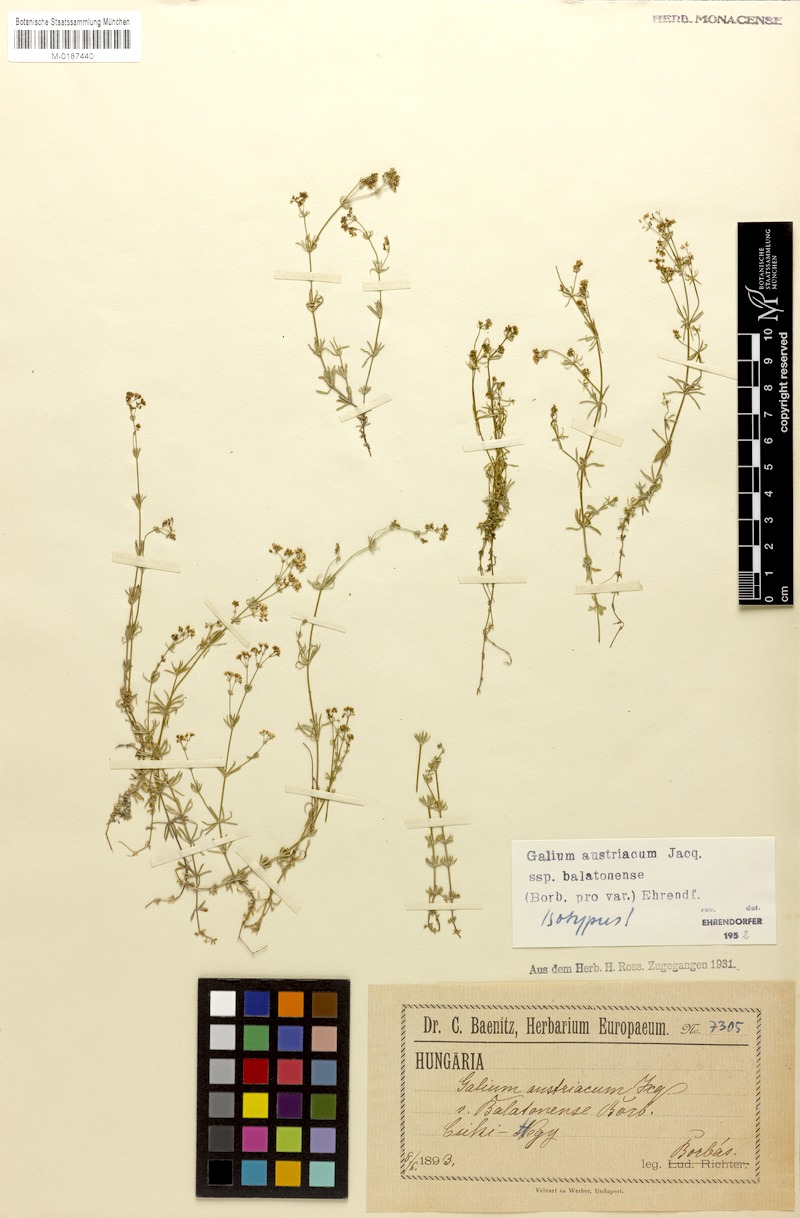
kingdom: Plantae
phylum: Tracheophyta
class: Magnoliopsida
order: Gentianales
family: Rubiaceae
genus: Galium
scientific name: Galium austriacum
